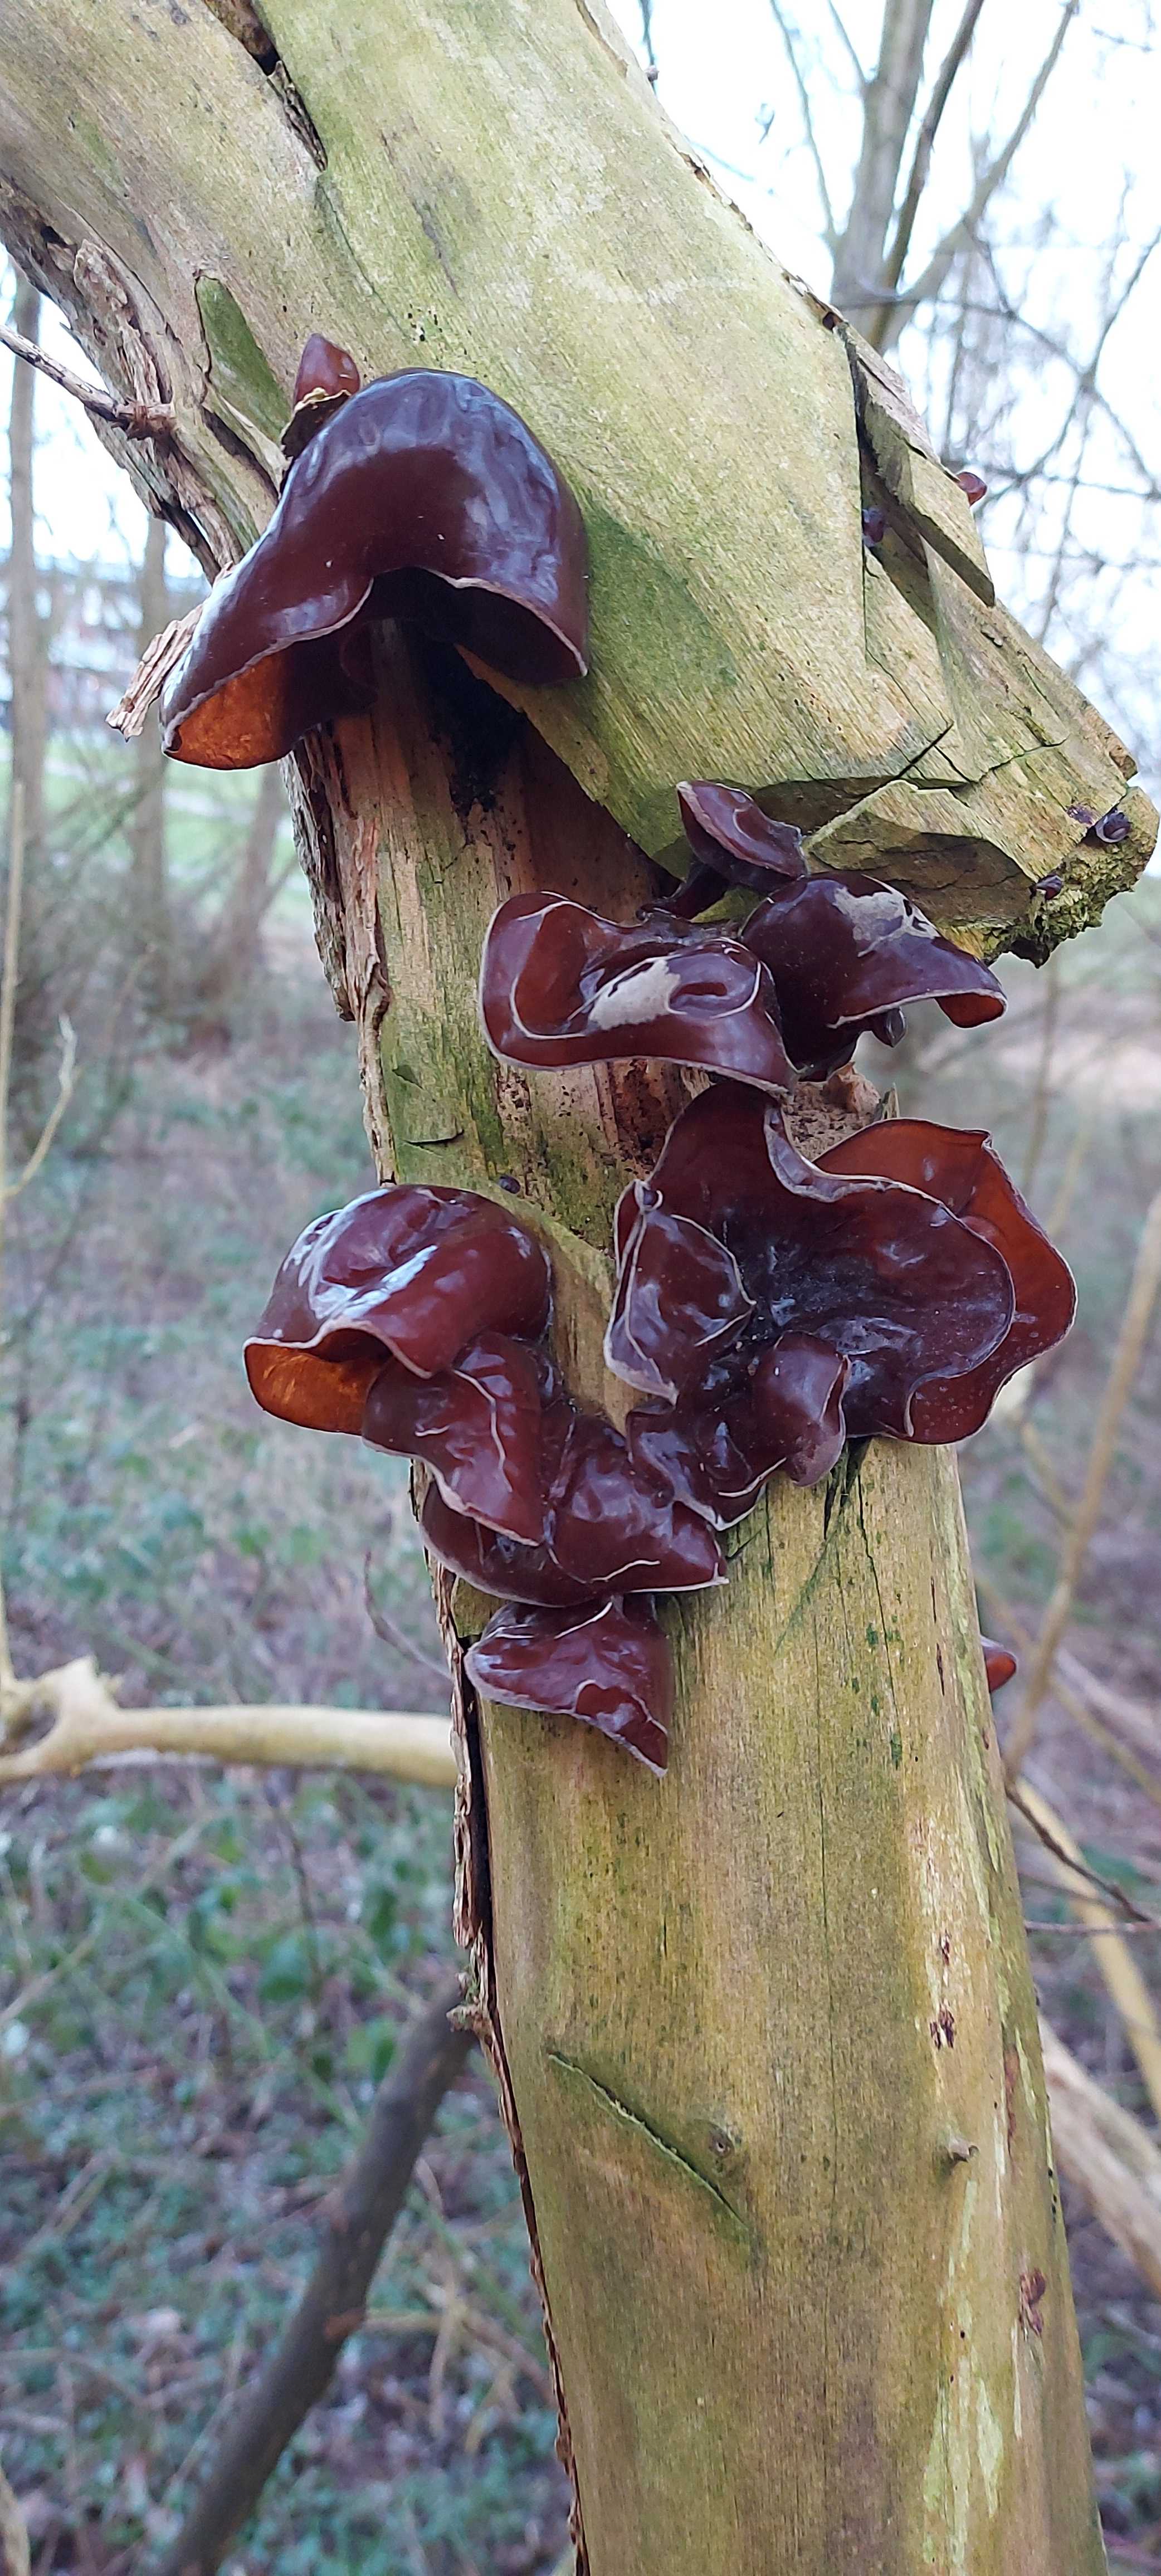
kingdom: Fungi
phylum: Basidiomycota
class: Agaricomycetes
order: Auriculariales
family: Auriculariaceae
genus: Auricularia
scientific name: Auricularia auricula-judae
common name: almindelig judasøre
